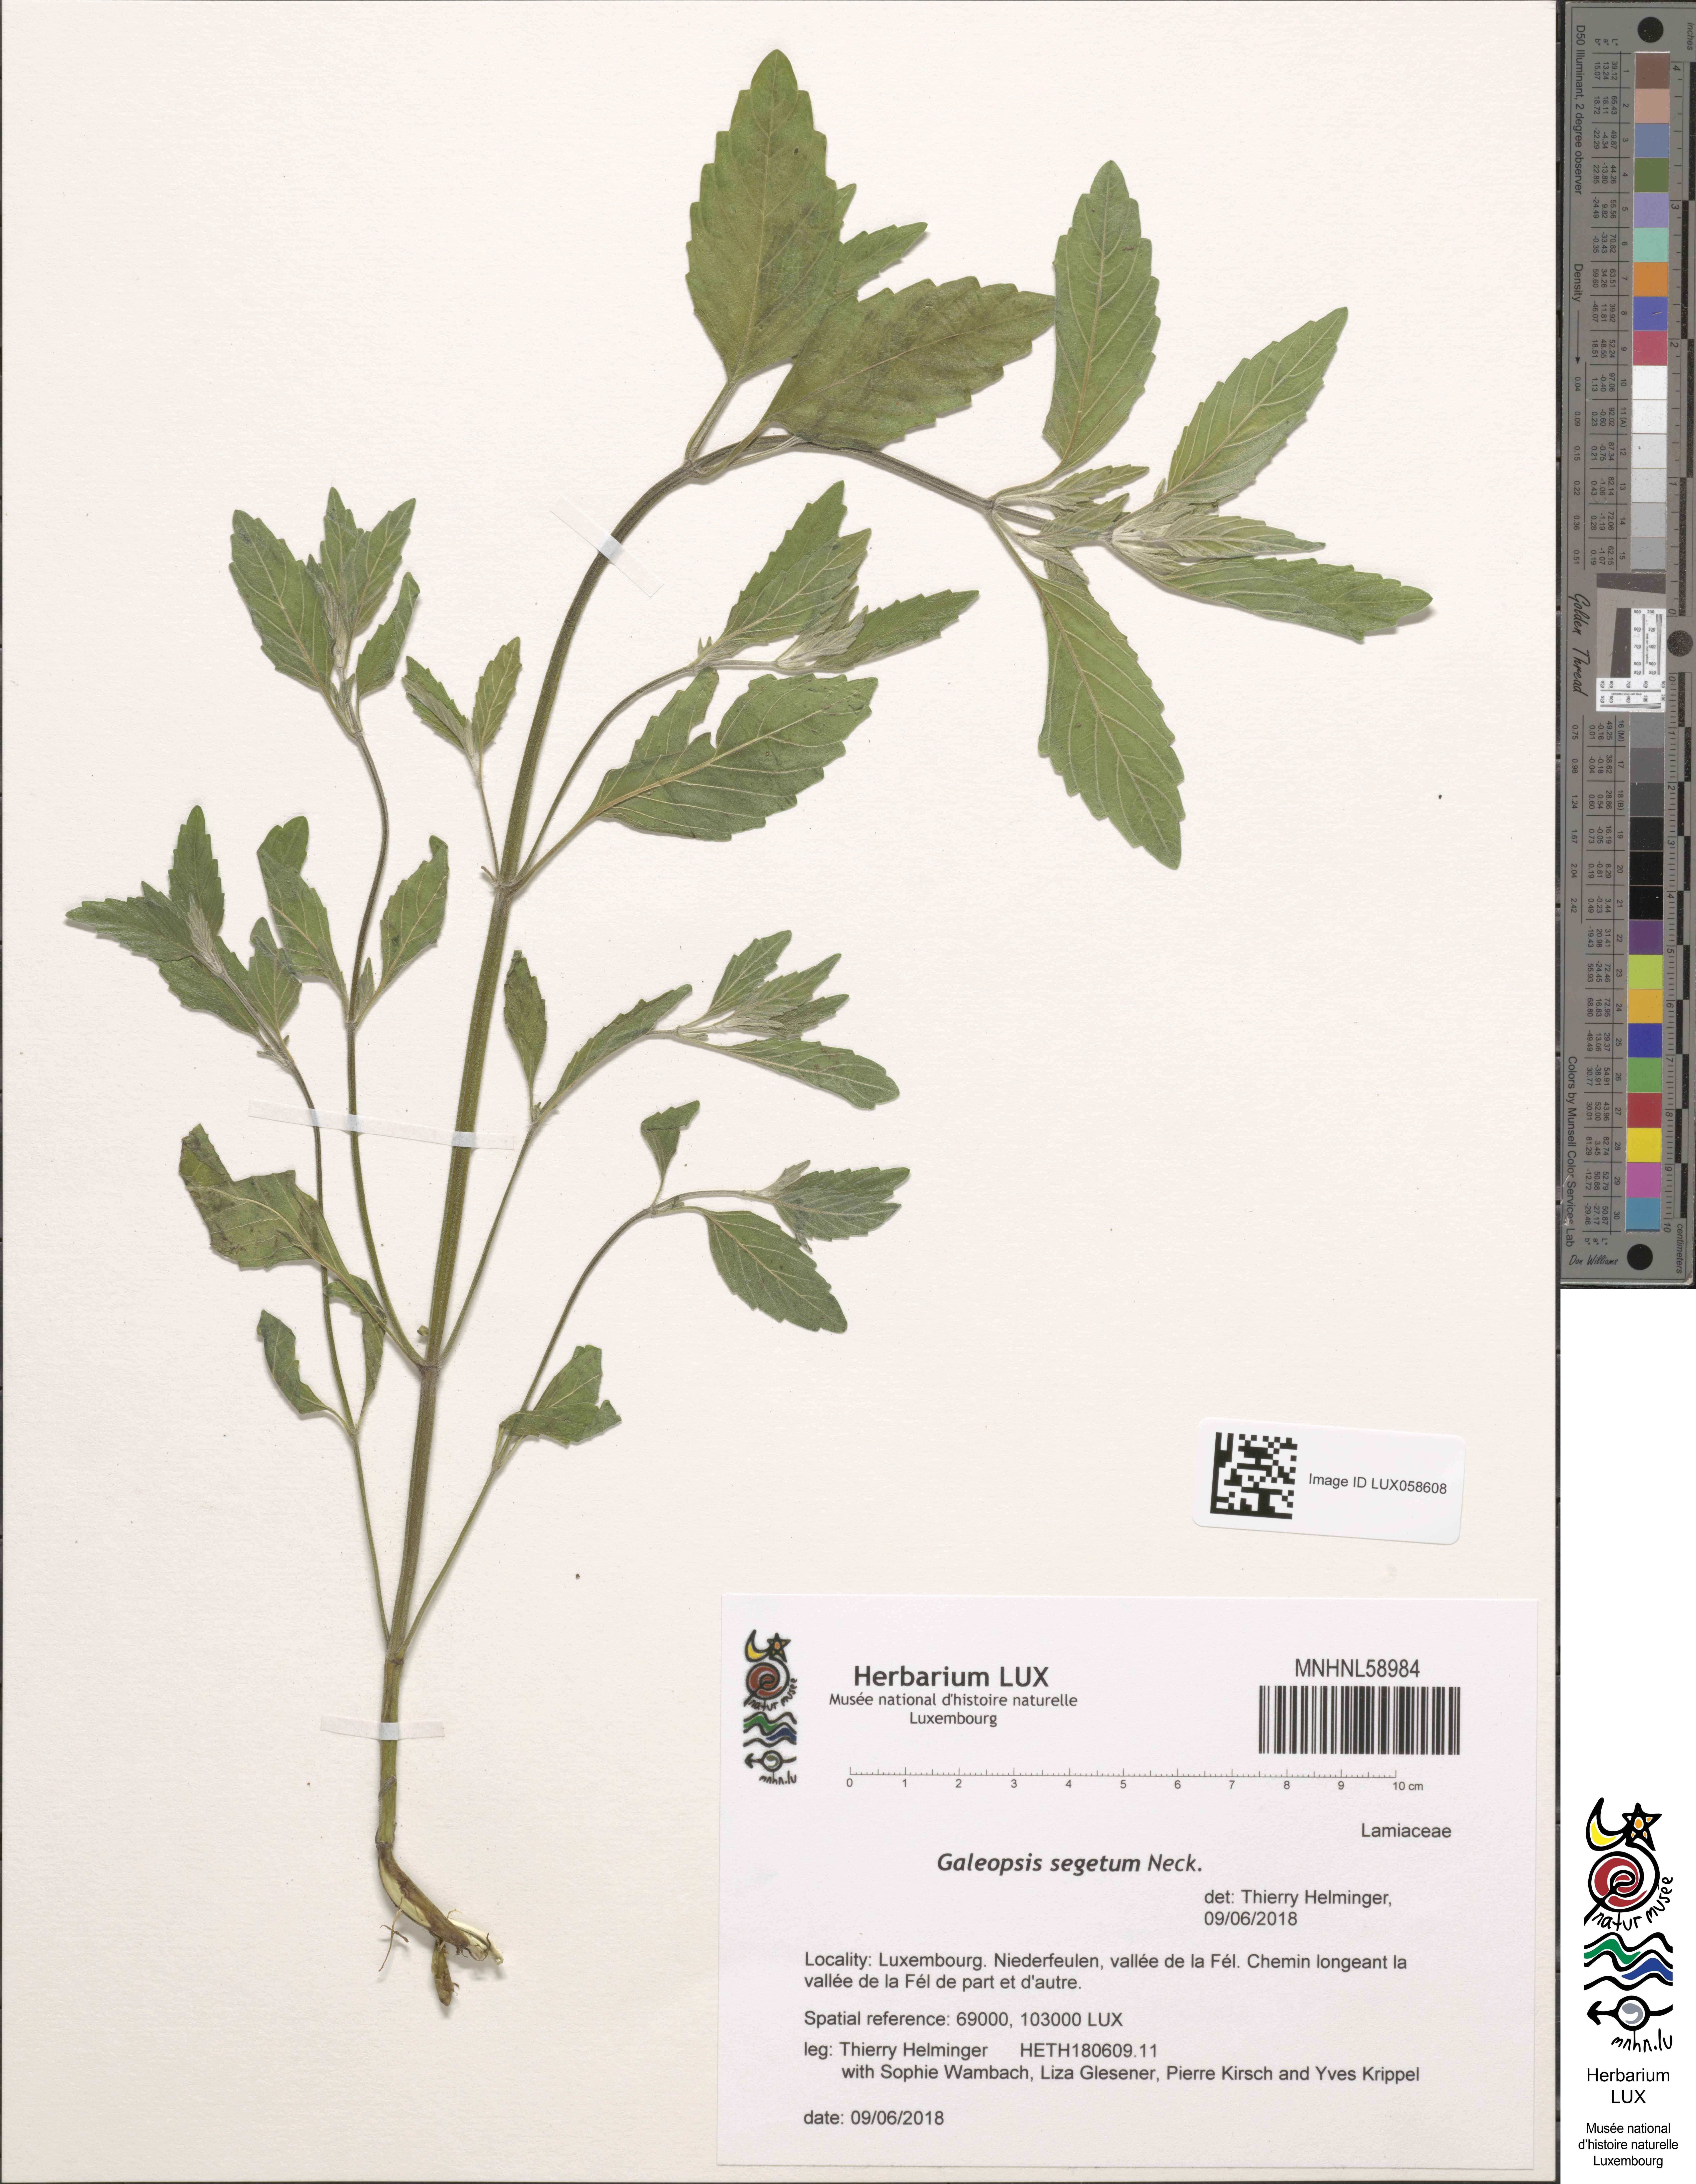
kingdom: Plantae
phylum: Tracheophyta
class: Magnoliopsida
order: Lamiales
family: Lamiaceae
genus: Galeopsis
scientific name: Galeopsis segetum
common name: Downy hemp-nettle
